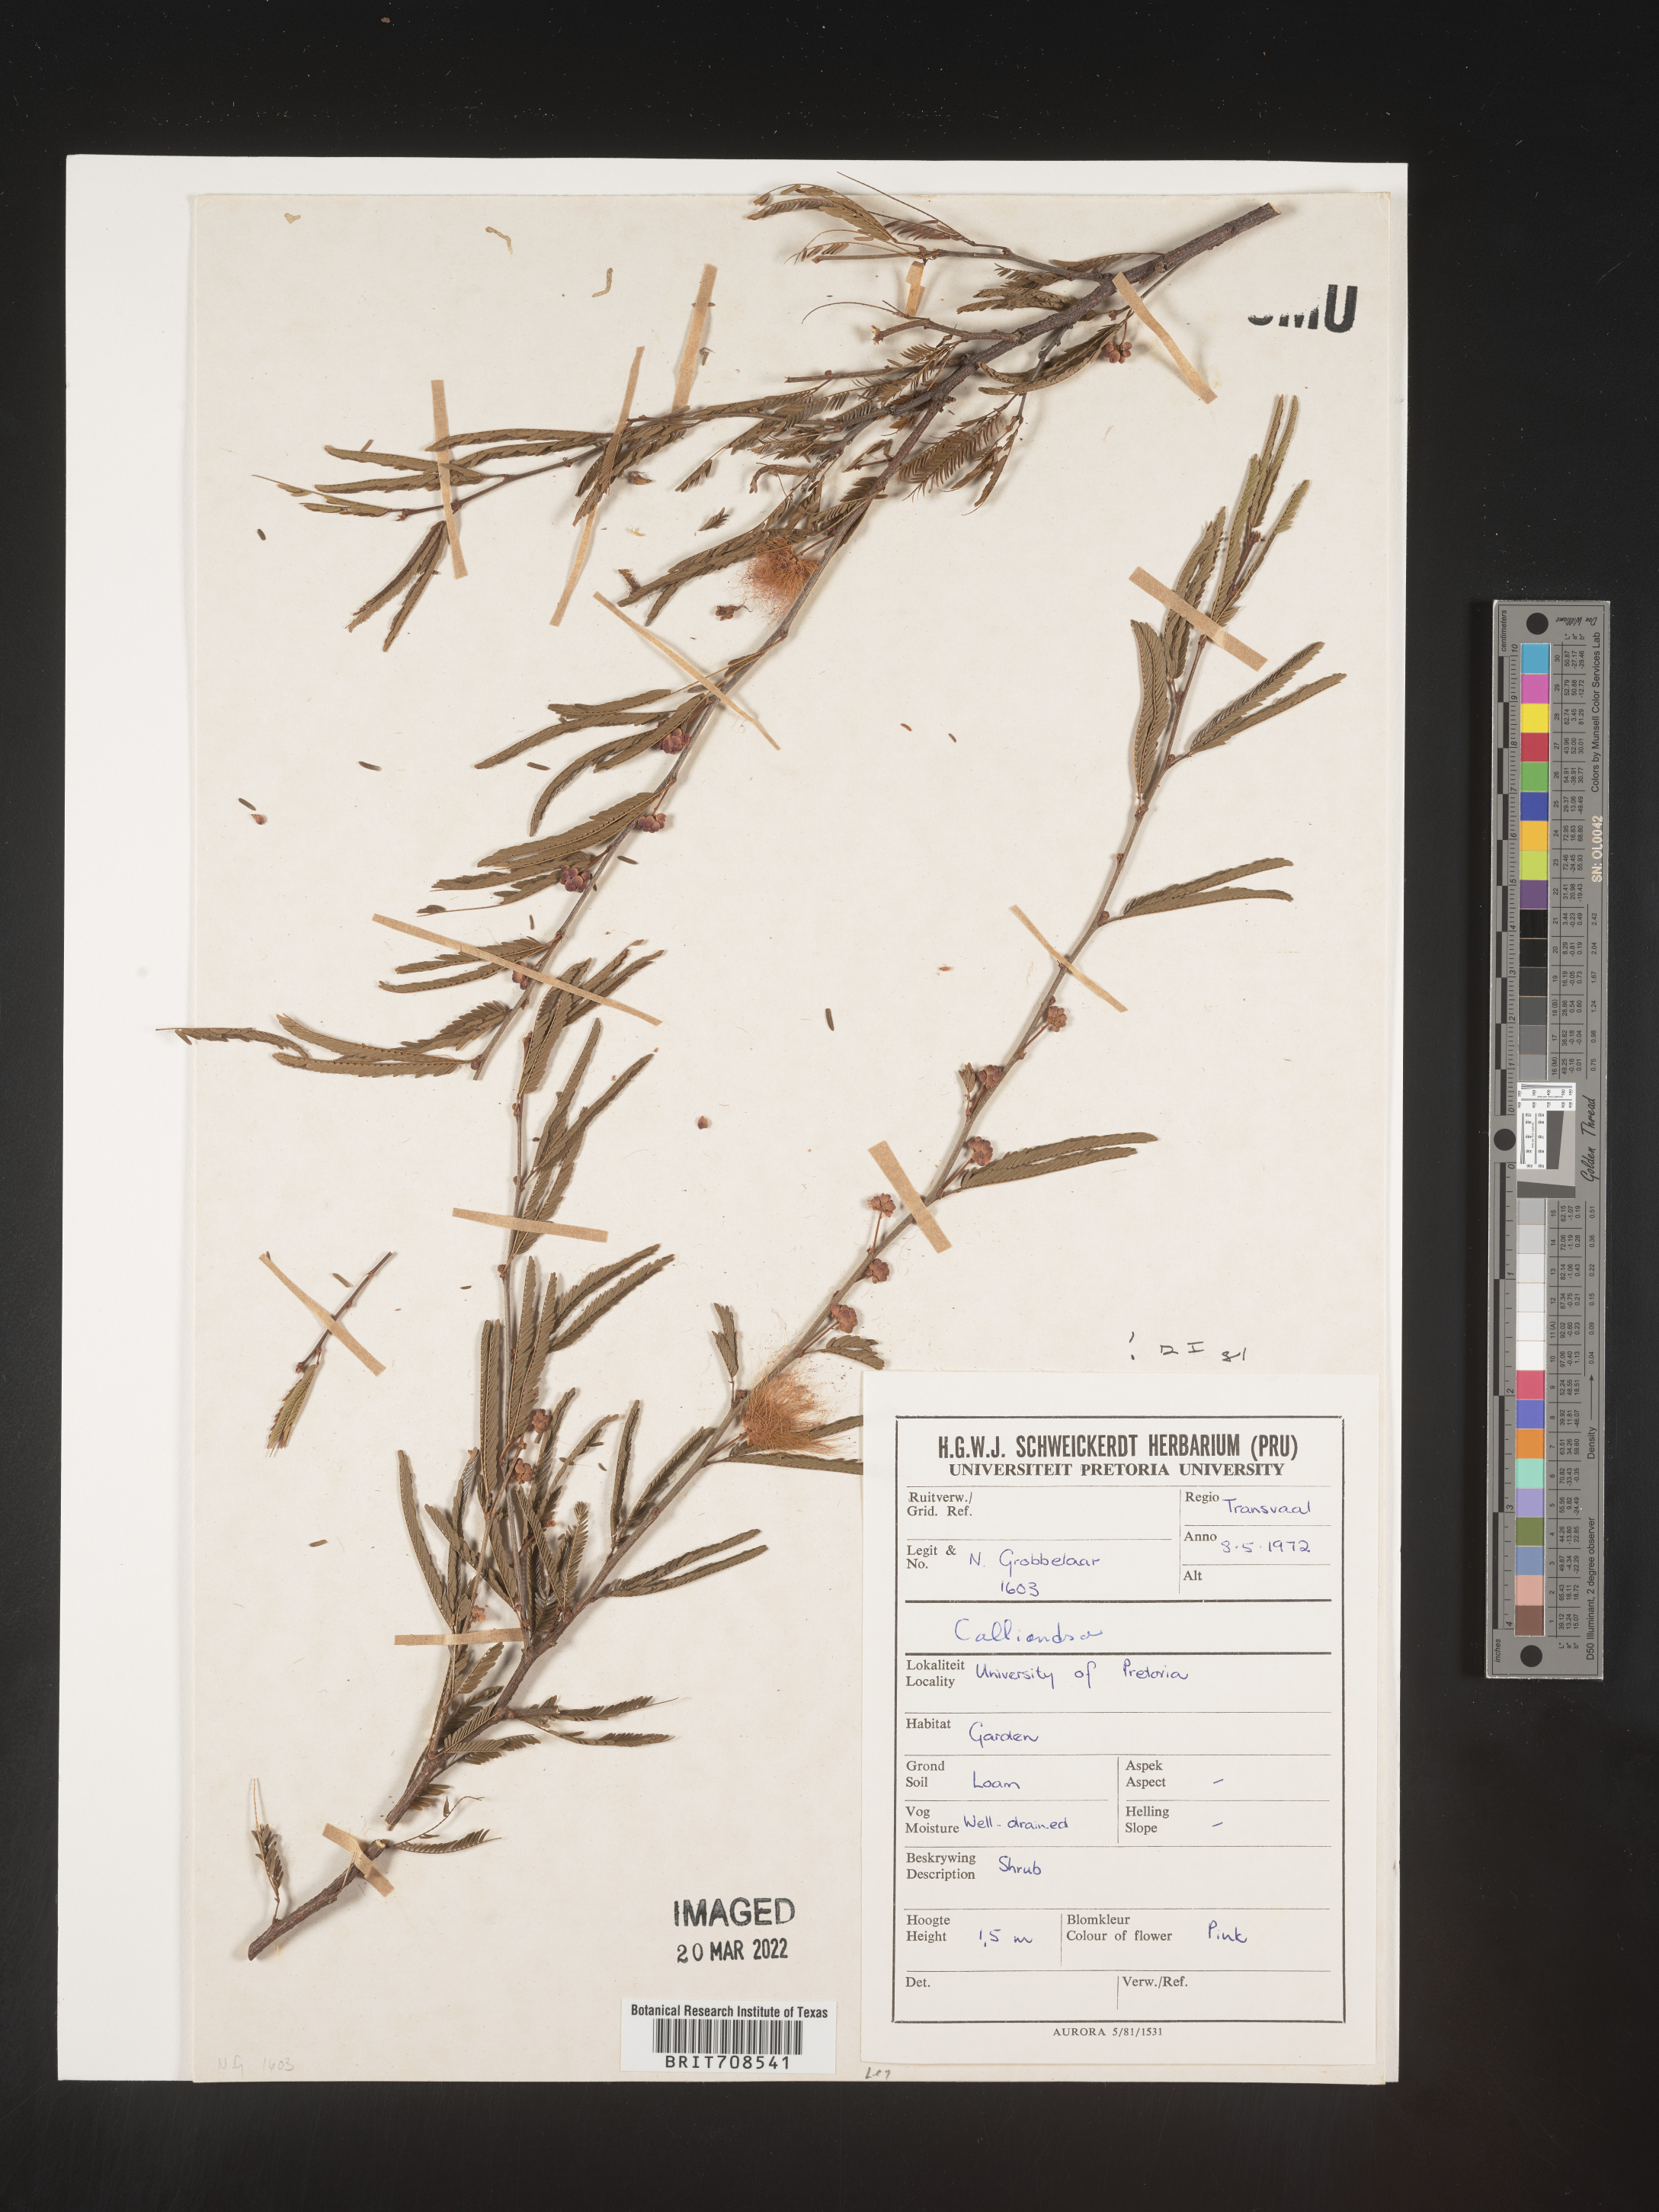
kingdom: Plantae
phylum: Tracheophyta
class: Magnoliopsida
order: Fabales
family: Fabaceae
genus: Calliandra
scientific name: Calliandra
